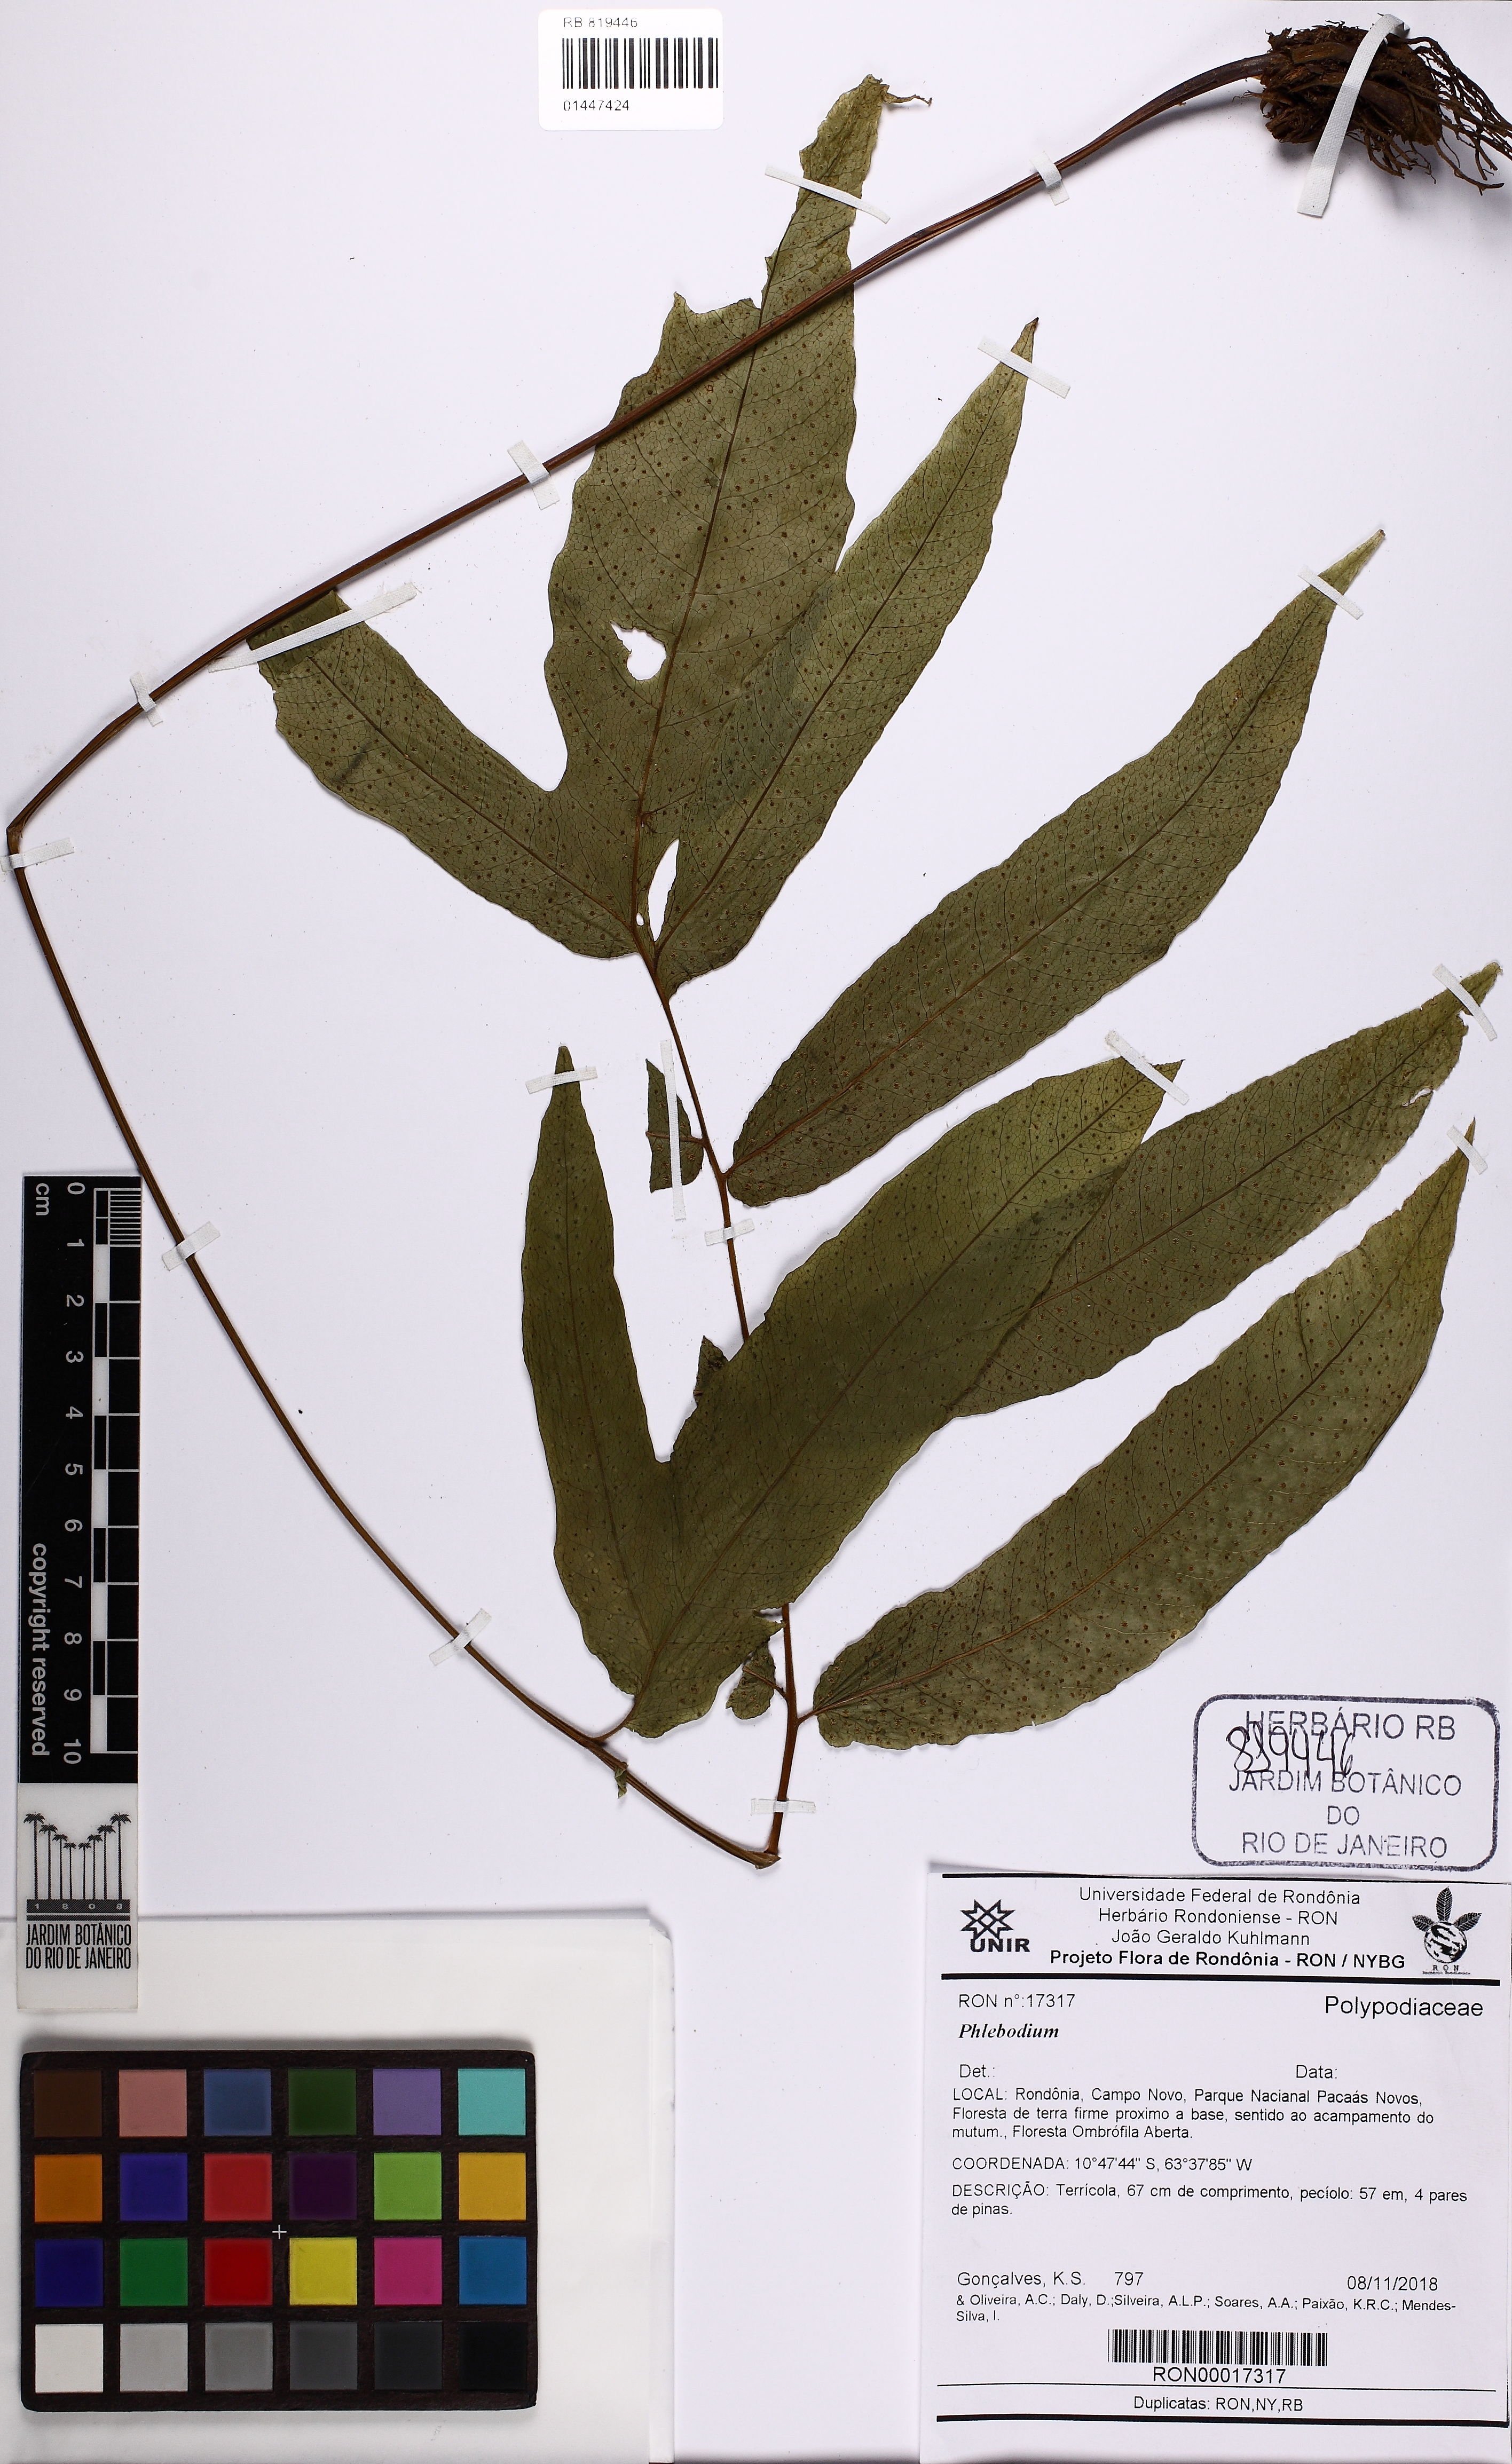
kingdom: Plantae
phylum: Tracheophyta
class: Polypodiopsida
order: Polypodiales
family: Polypodiaceae
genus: Phlebodium
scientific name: Phlebodium
